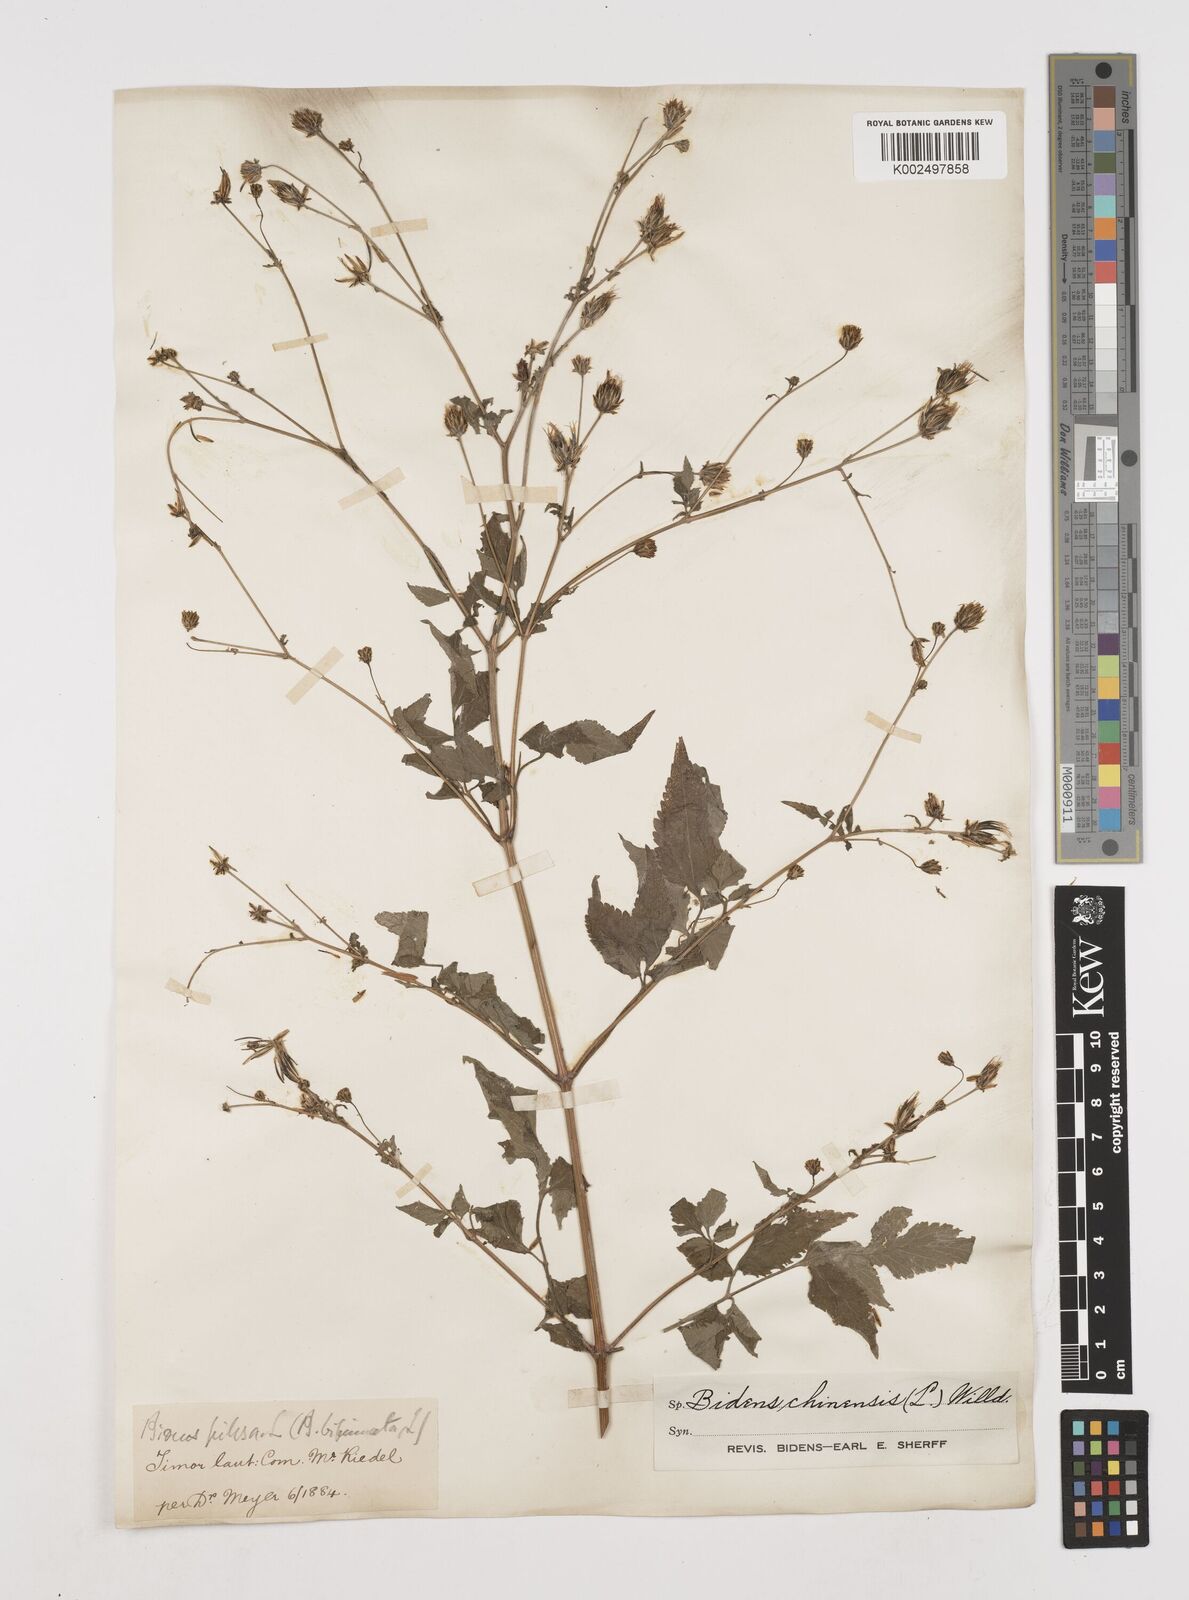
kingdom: Plantae
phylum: Tracheophyta
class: Magnoliopsida
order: Asterales
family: Asteraceae
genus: Bidens
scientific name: Bidens biternata
